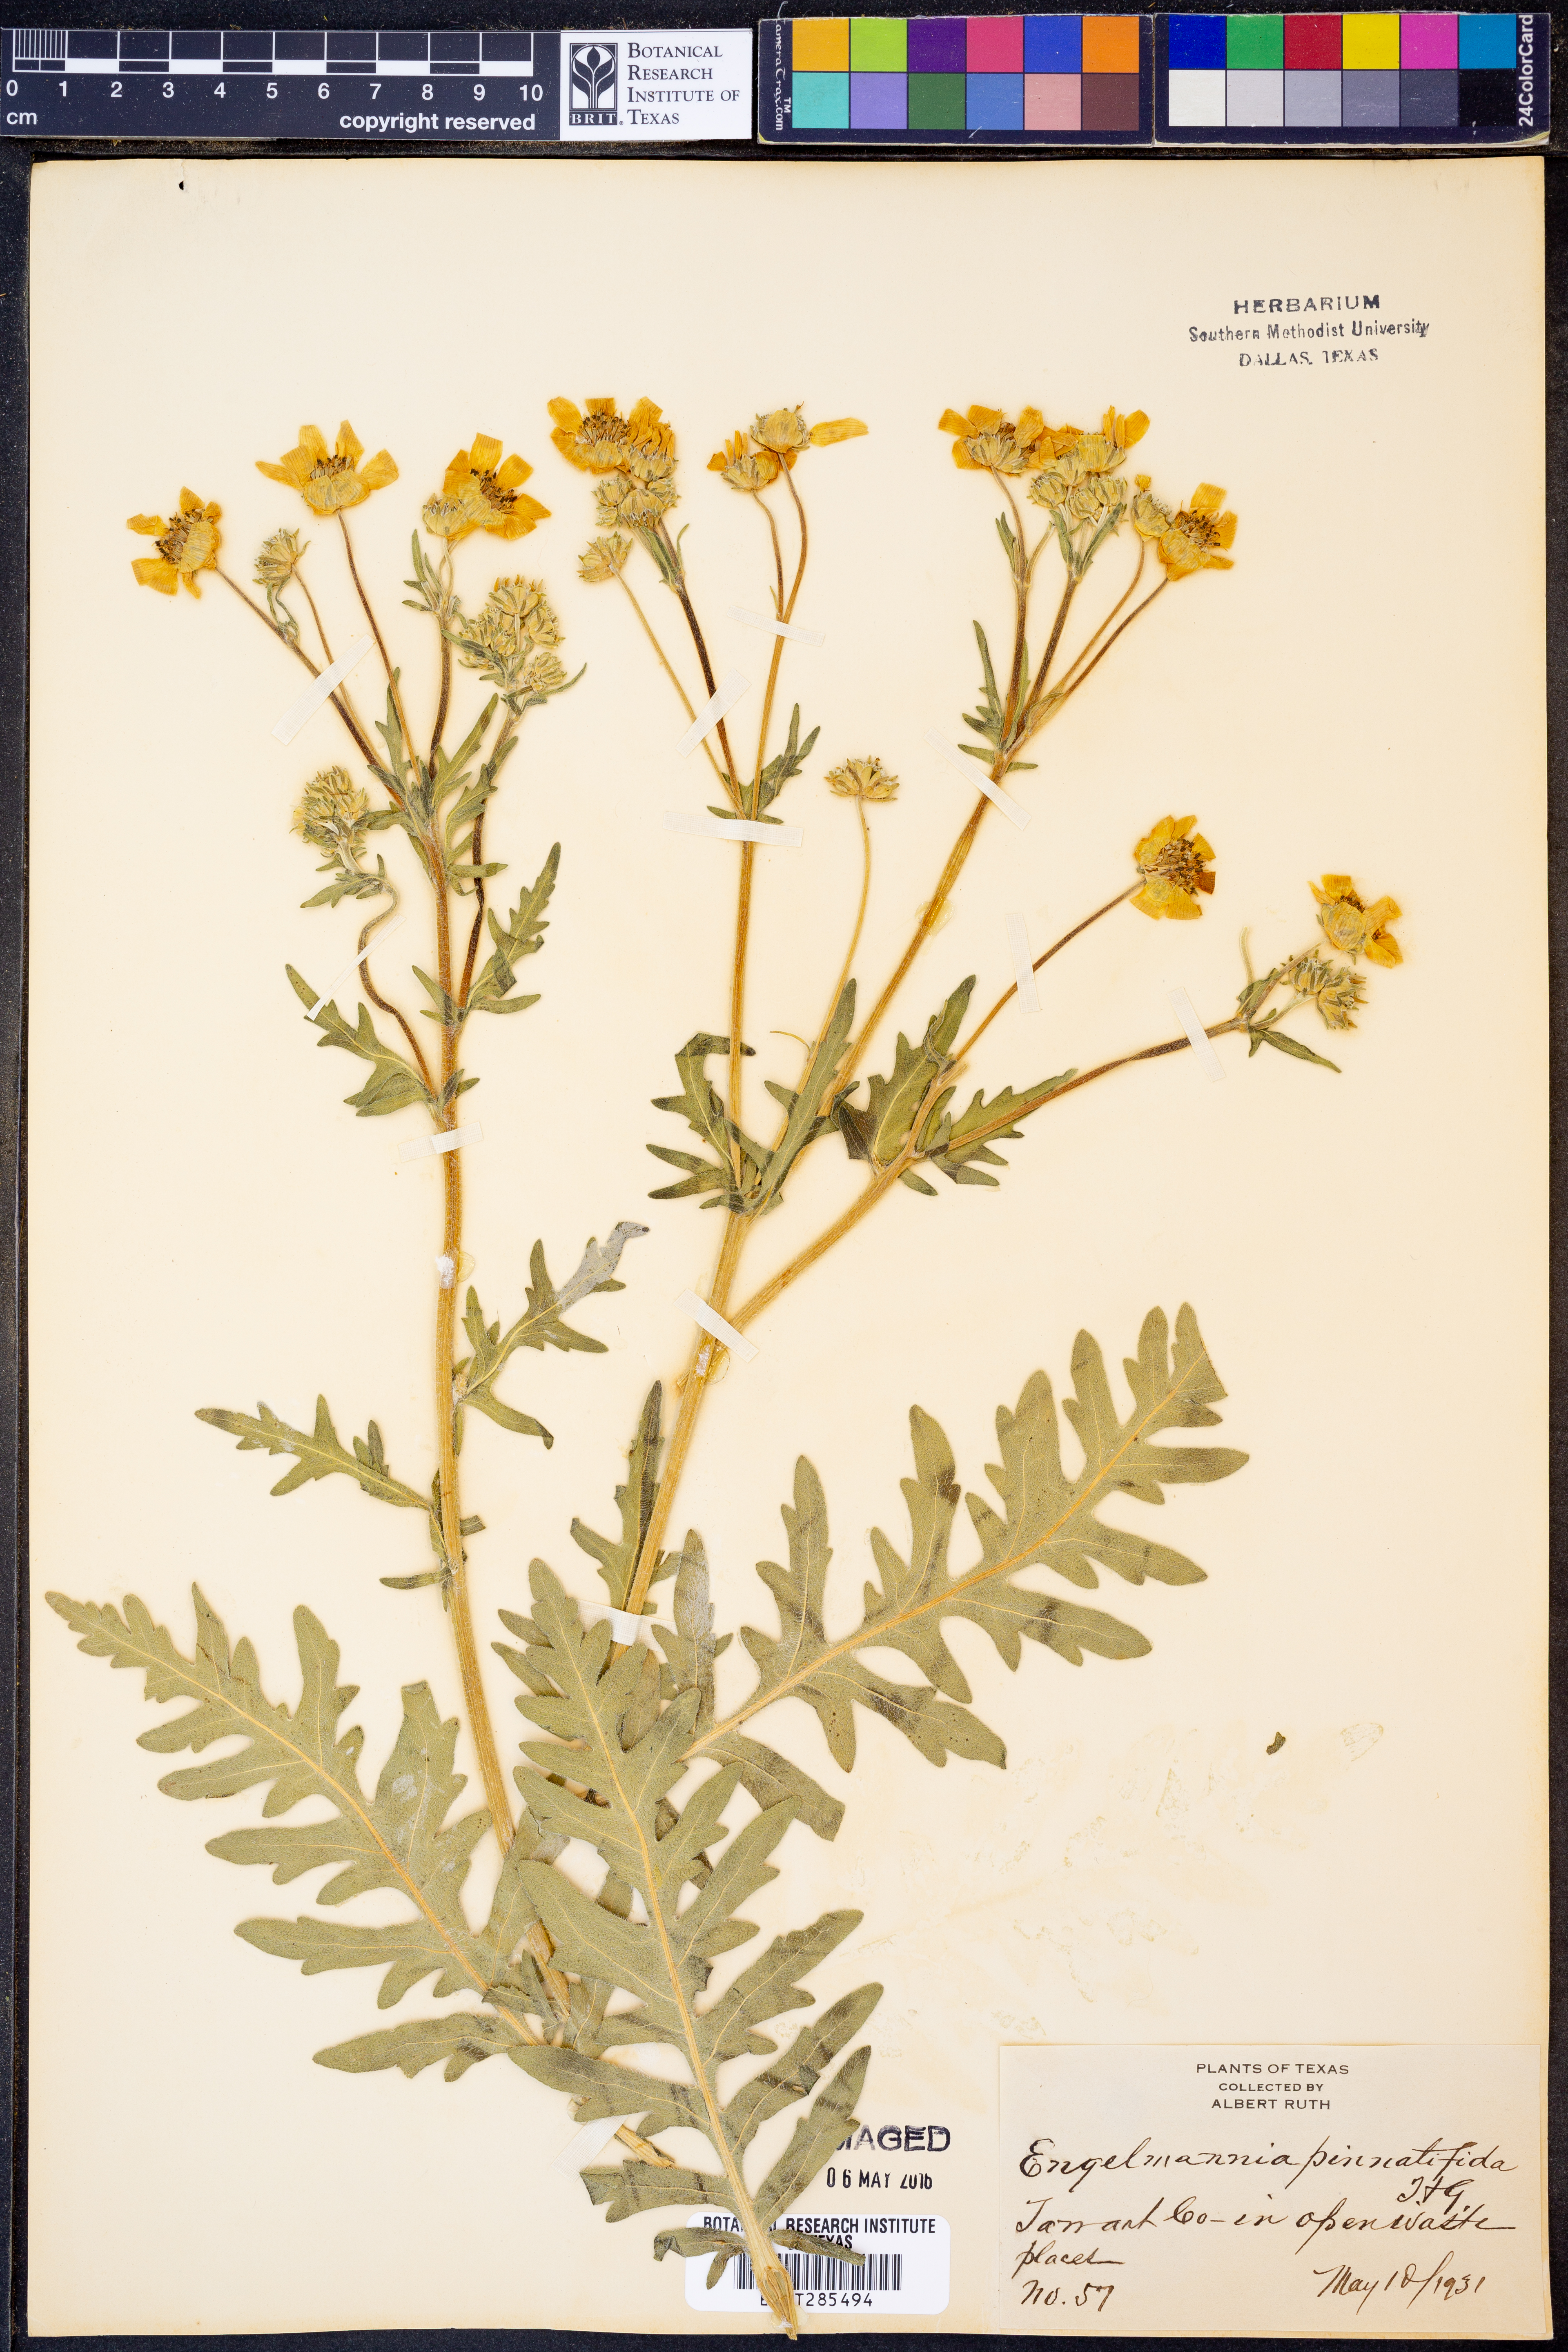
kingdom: Plantae
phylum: Tracheophyta
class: Magnoliopsida
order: Asterales
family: Asteraceae
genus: Engelmannia
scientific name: Engelmannia peristenia
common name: Engelmann's daisy
